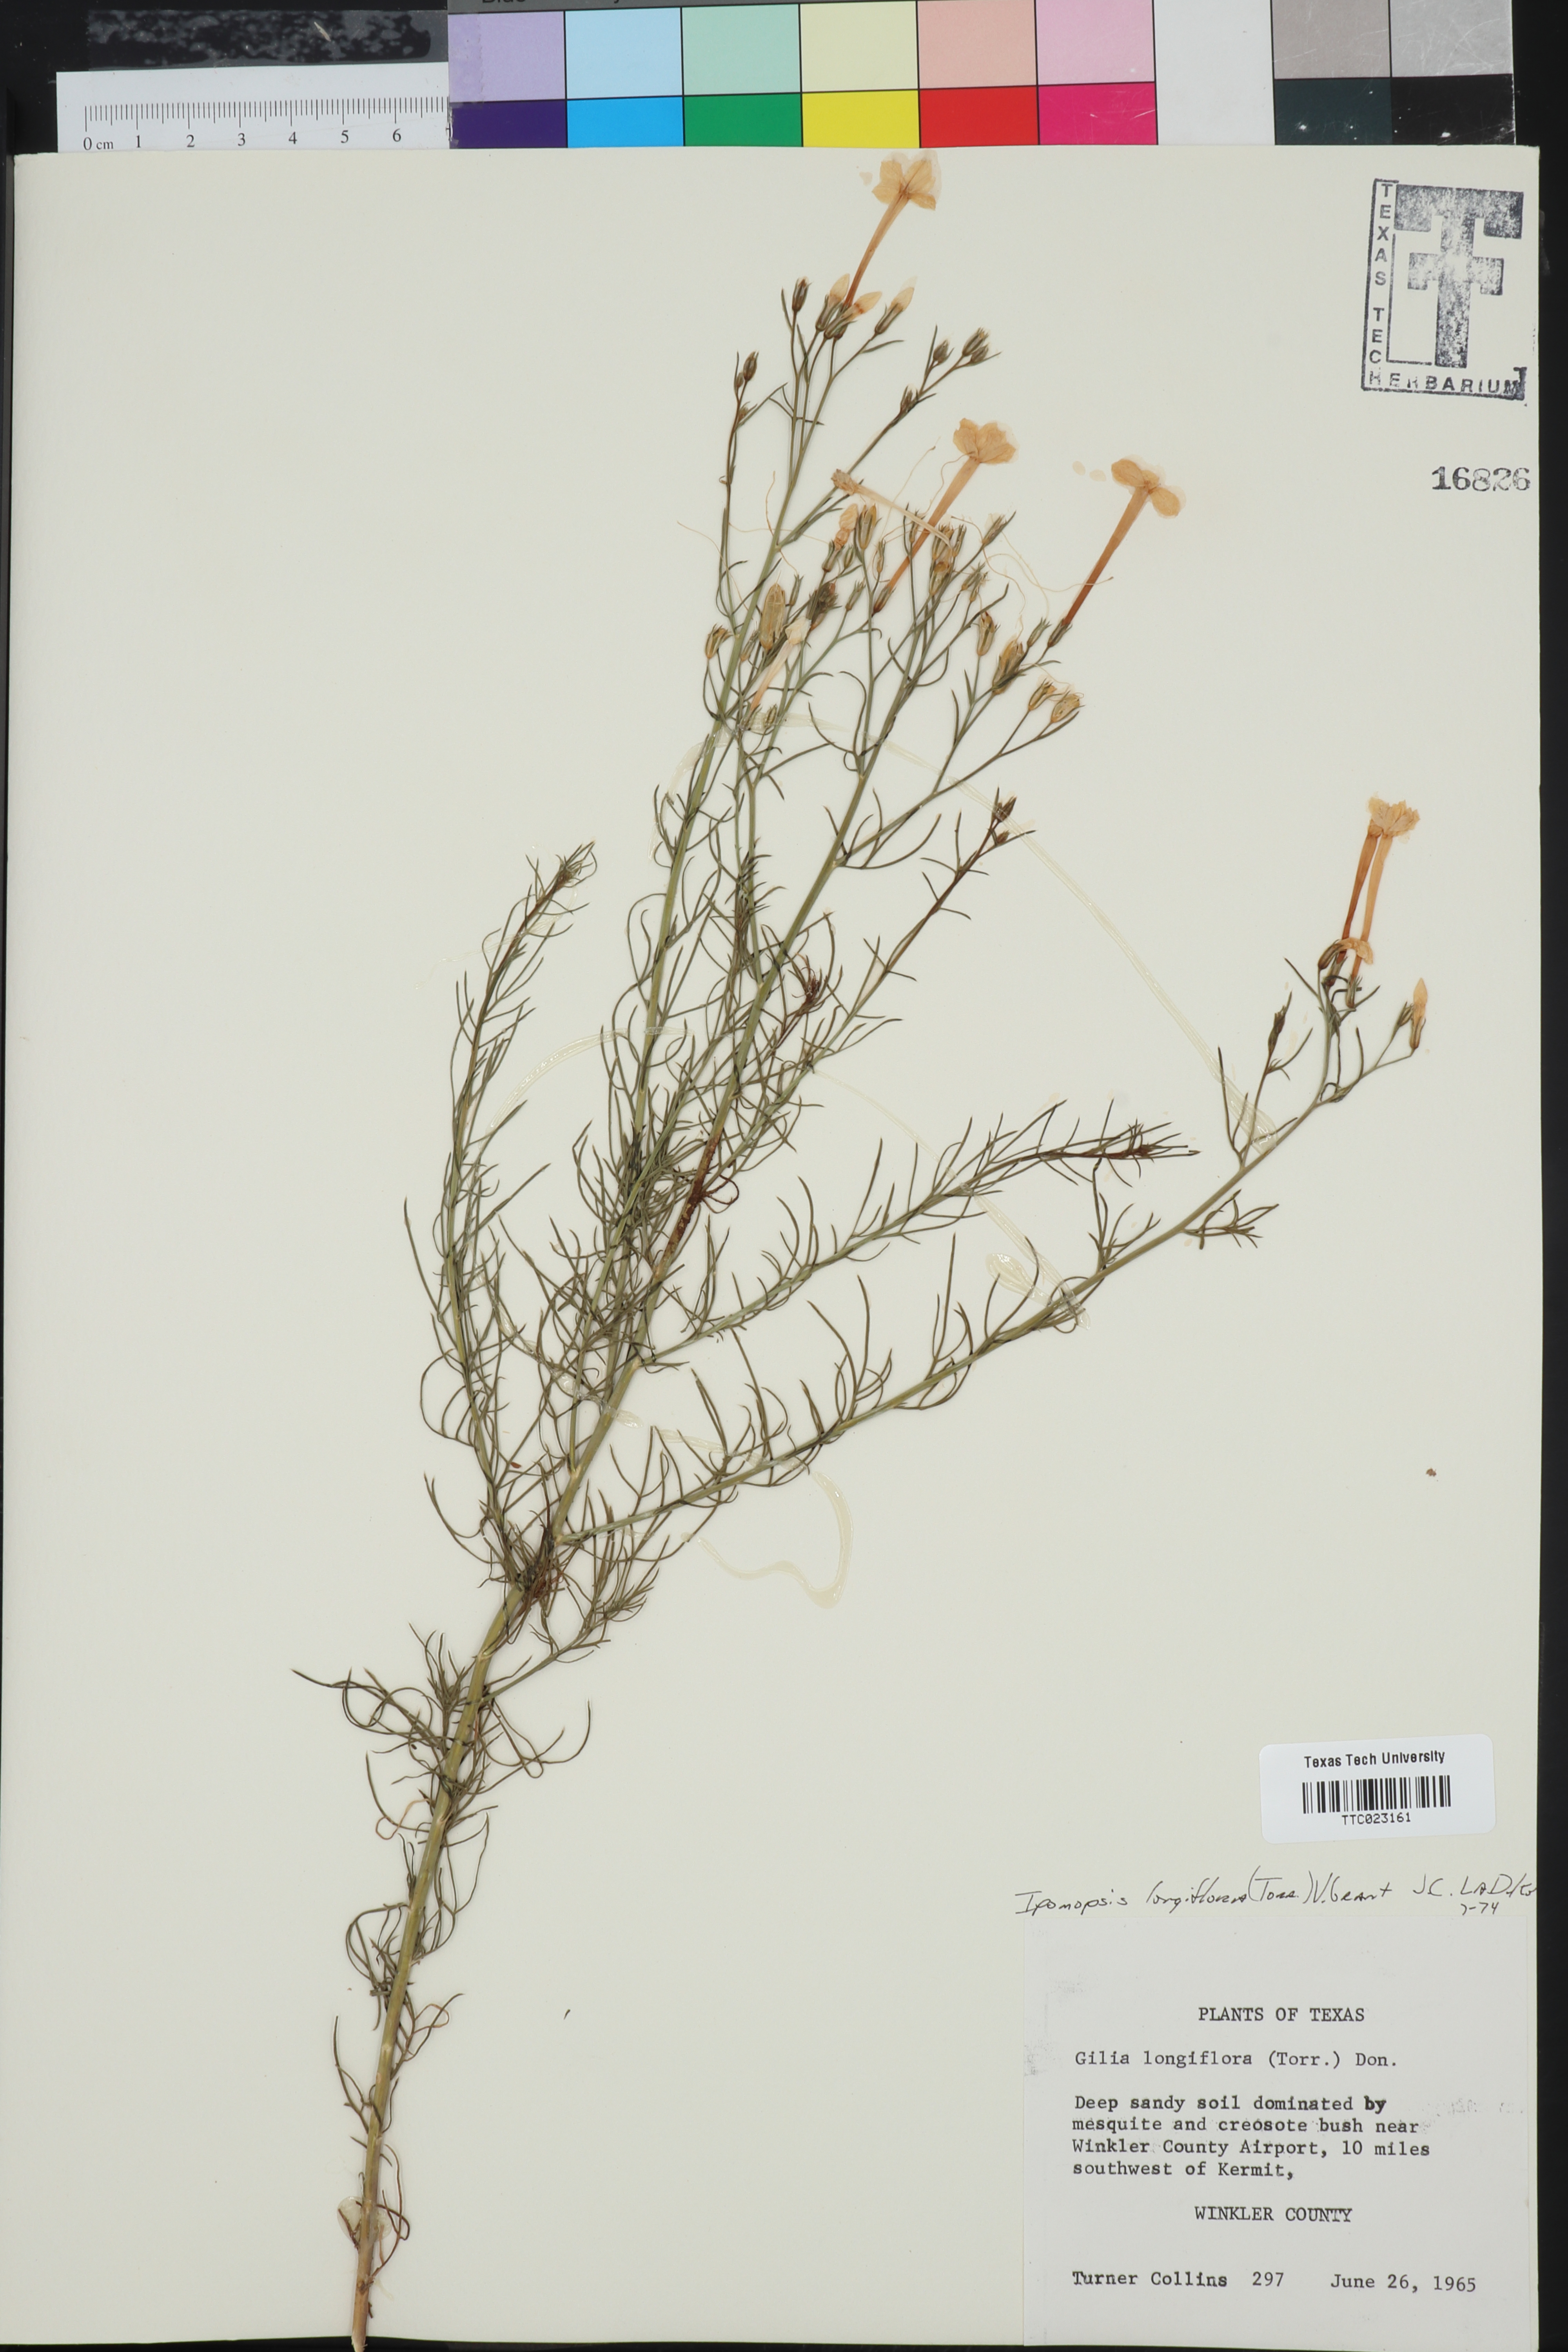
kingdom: Plantae
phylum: Tracheophyta
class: Magnoliopsida
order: Ericales
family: Polemoniaceae
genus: Ipomopsis
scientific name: Ipomopsis longiflora
